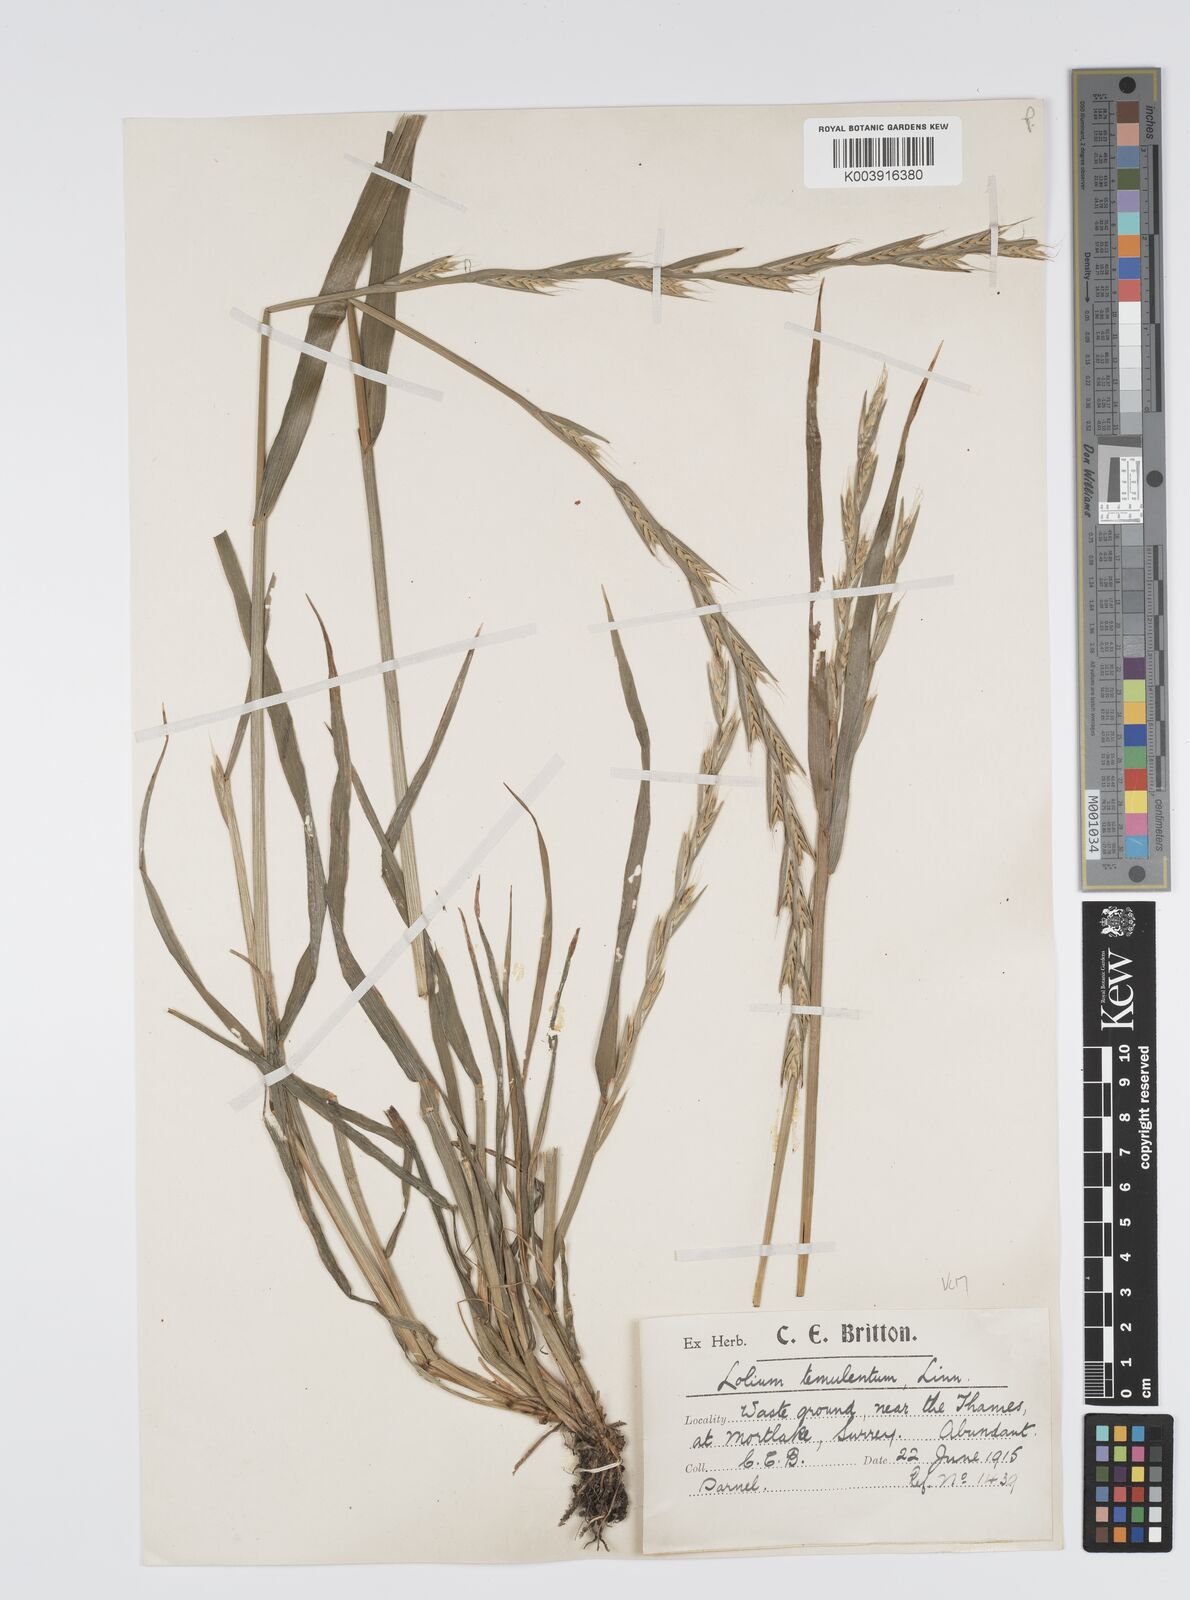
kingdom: Plantae
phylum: Tracheophyta
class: Liliopsida
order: Poales
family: Poaceae
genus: Lolium
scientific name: Lolium temulentum
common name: Darnel
